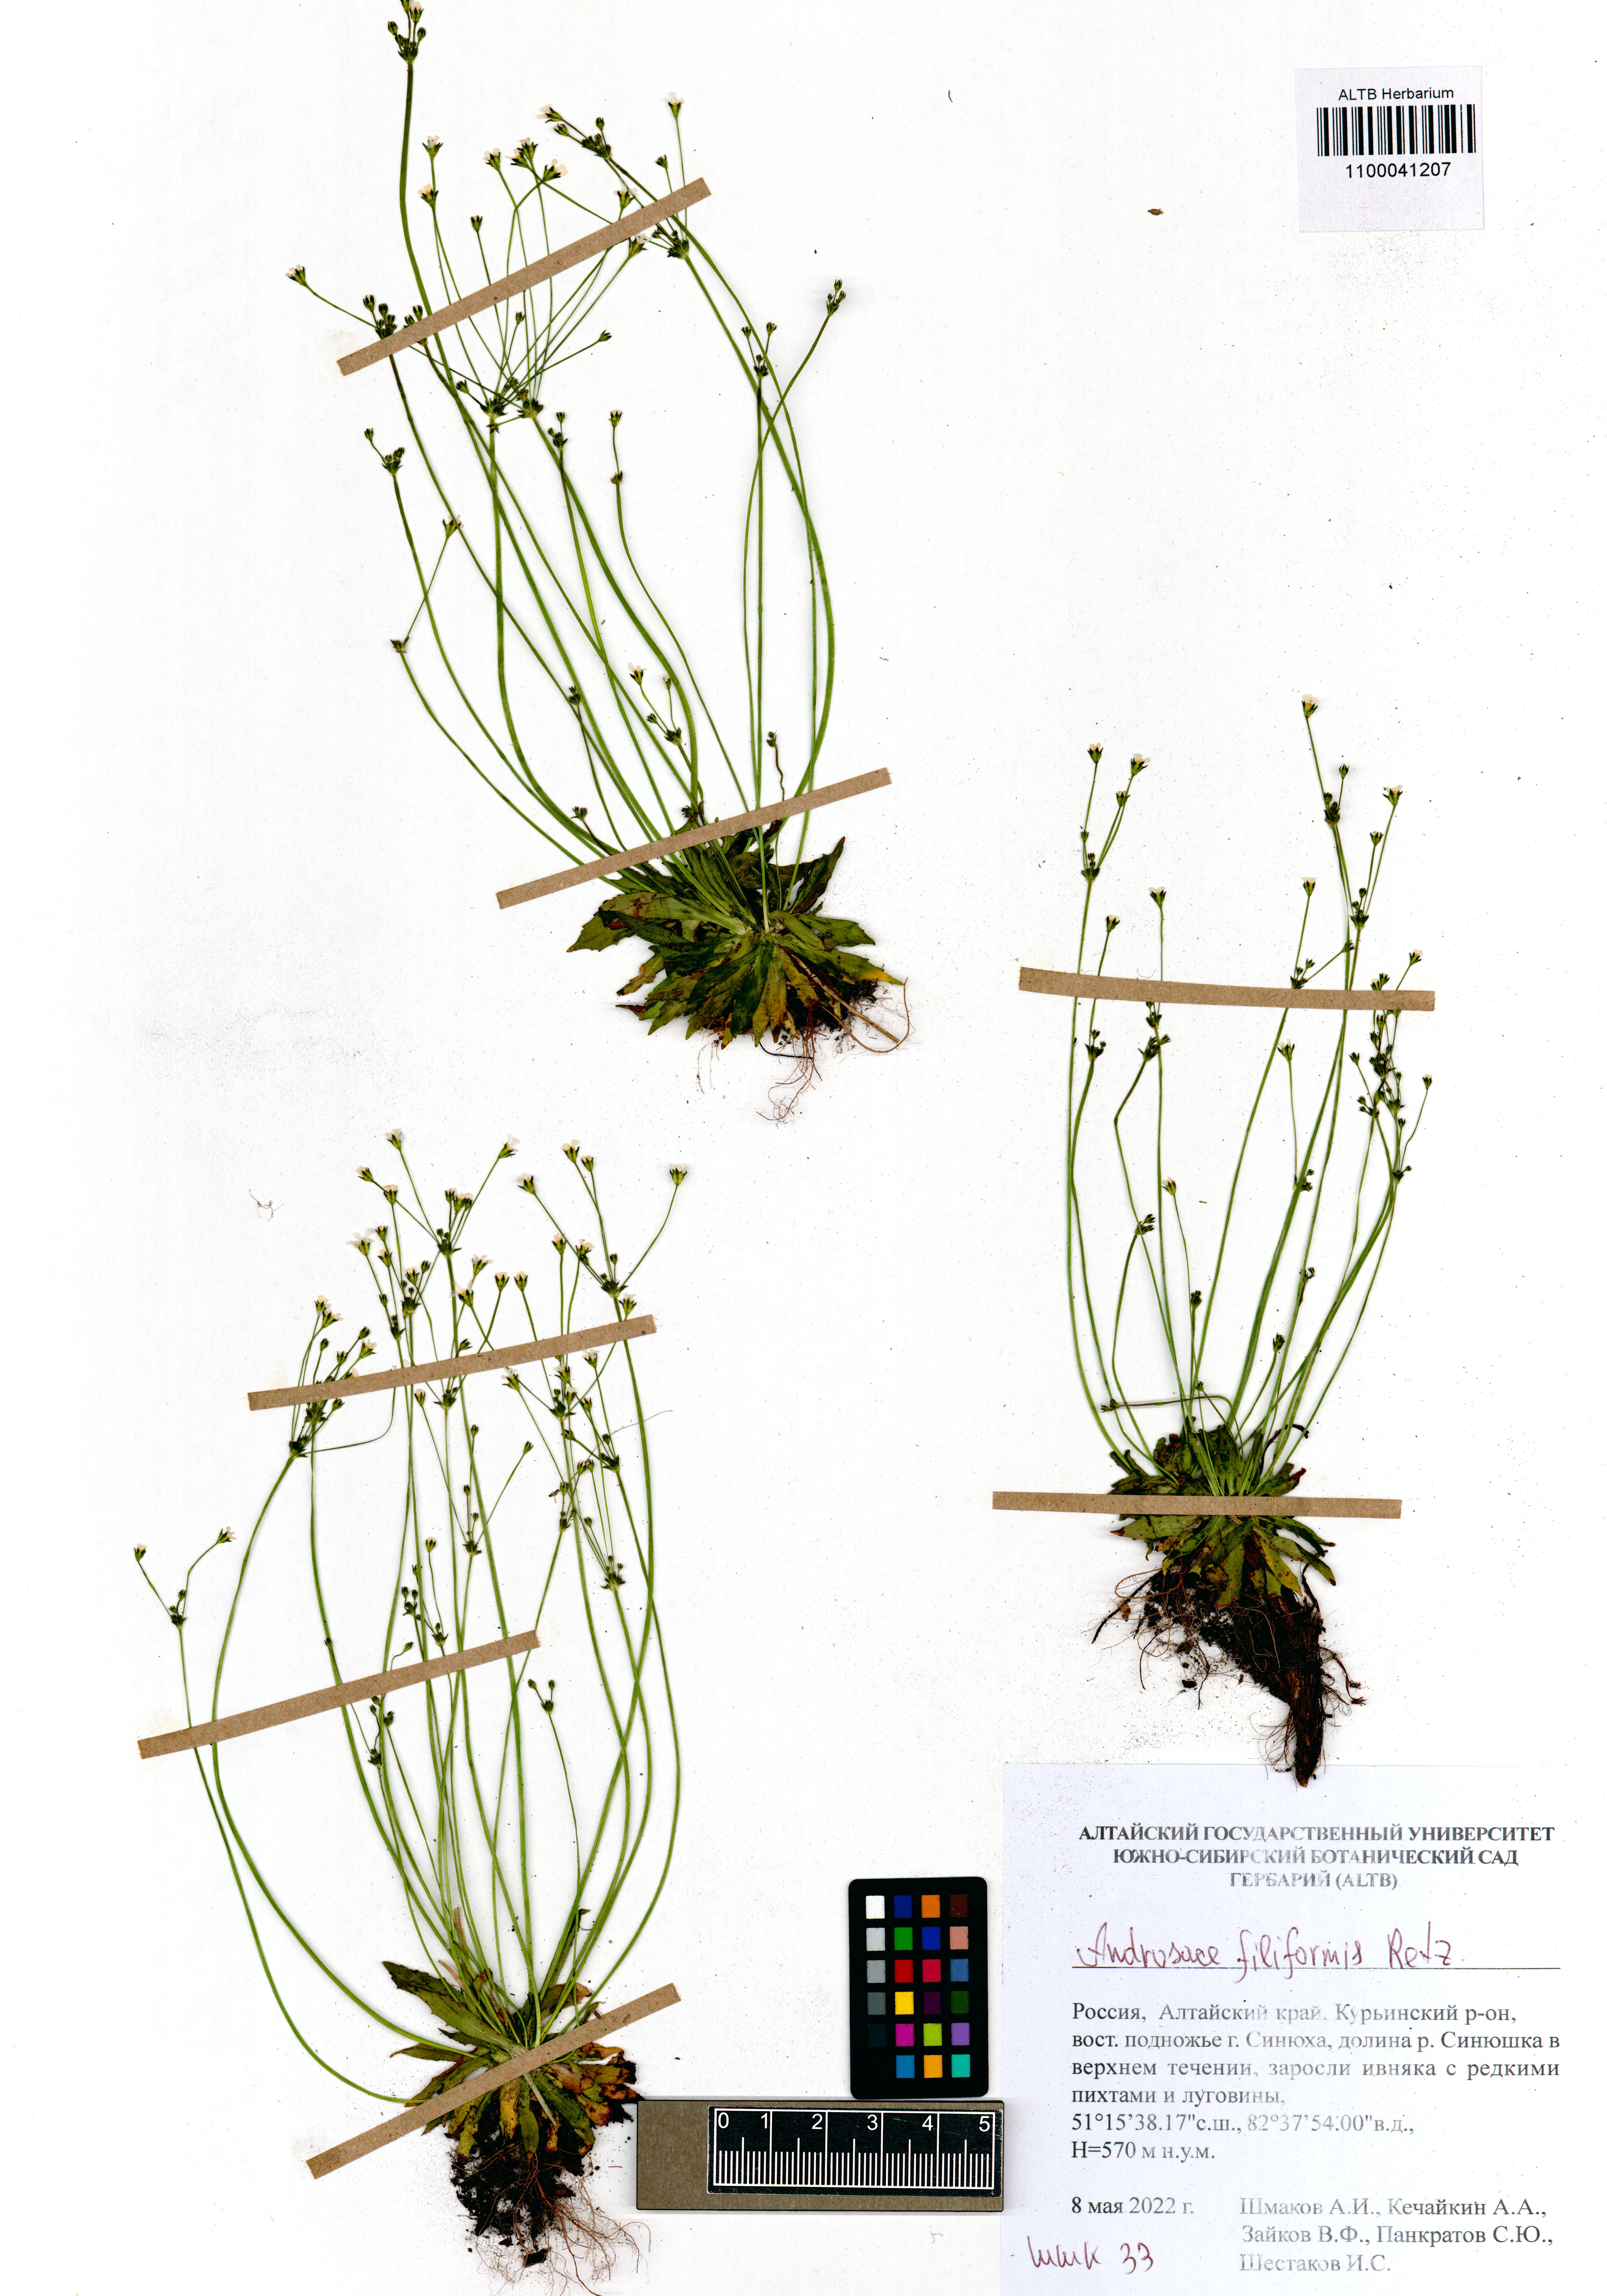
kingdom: Plantae
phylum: Tracheophyta
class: Magnoliopsida
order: Ericales
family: Primulaceae
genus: Androsace
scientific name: Androsace filiformis
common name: Filiform rock jasmine
